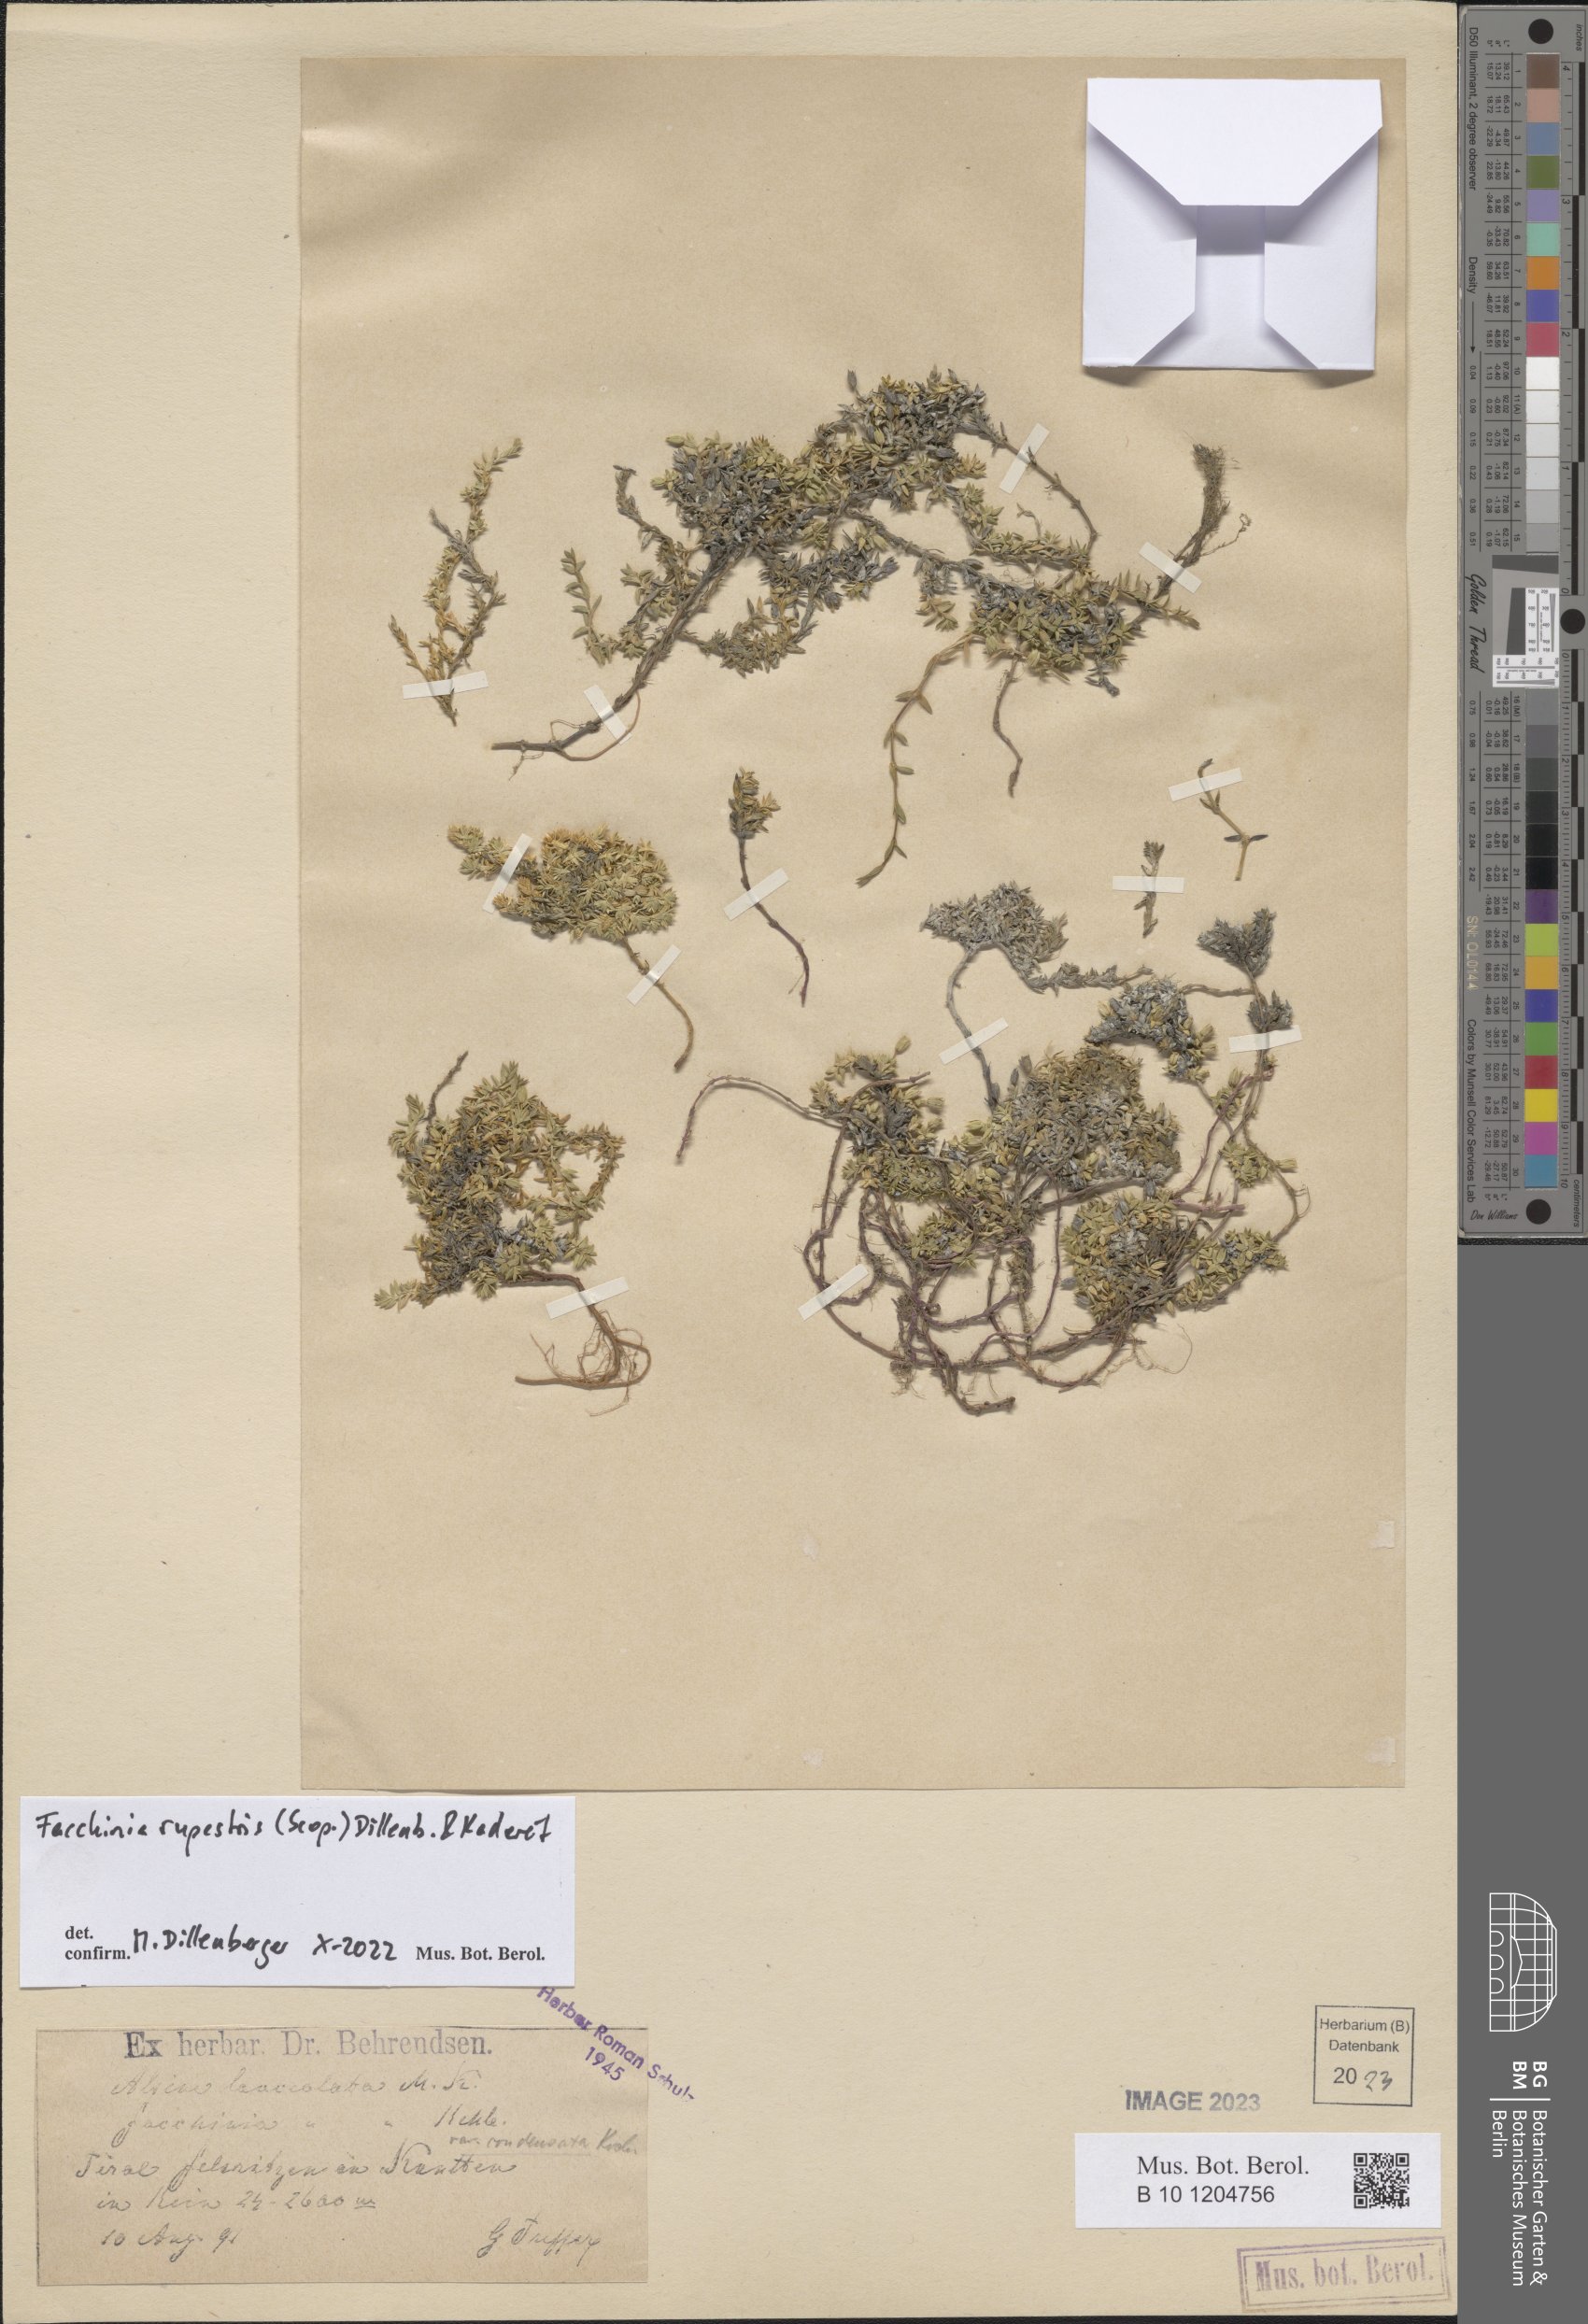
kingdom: Plantae
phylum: Tracheophyta
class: Magnoliopsida
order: Caryophyllales
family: Caryophyllaceae
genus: Facchinia
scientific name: Facchinia rupestris
